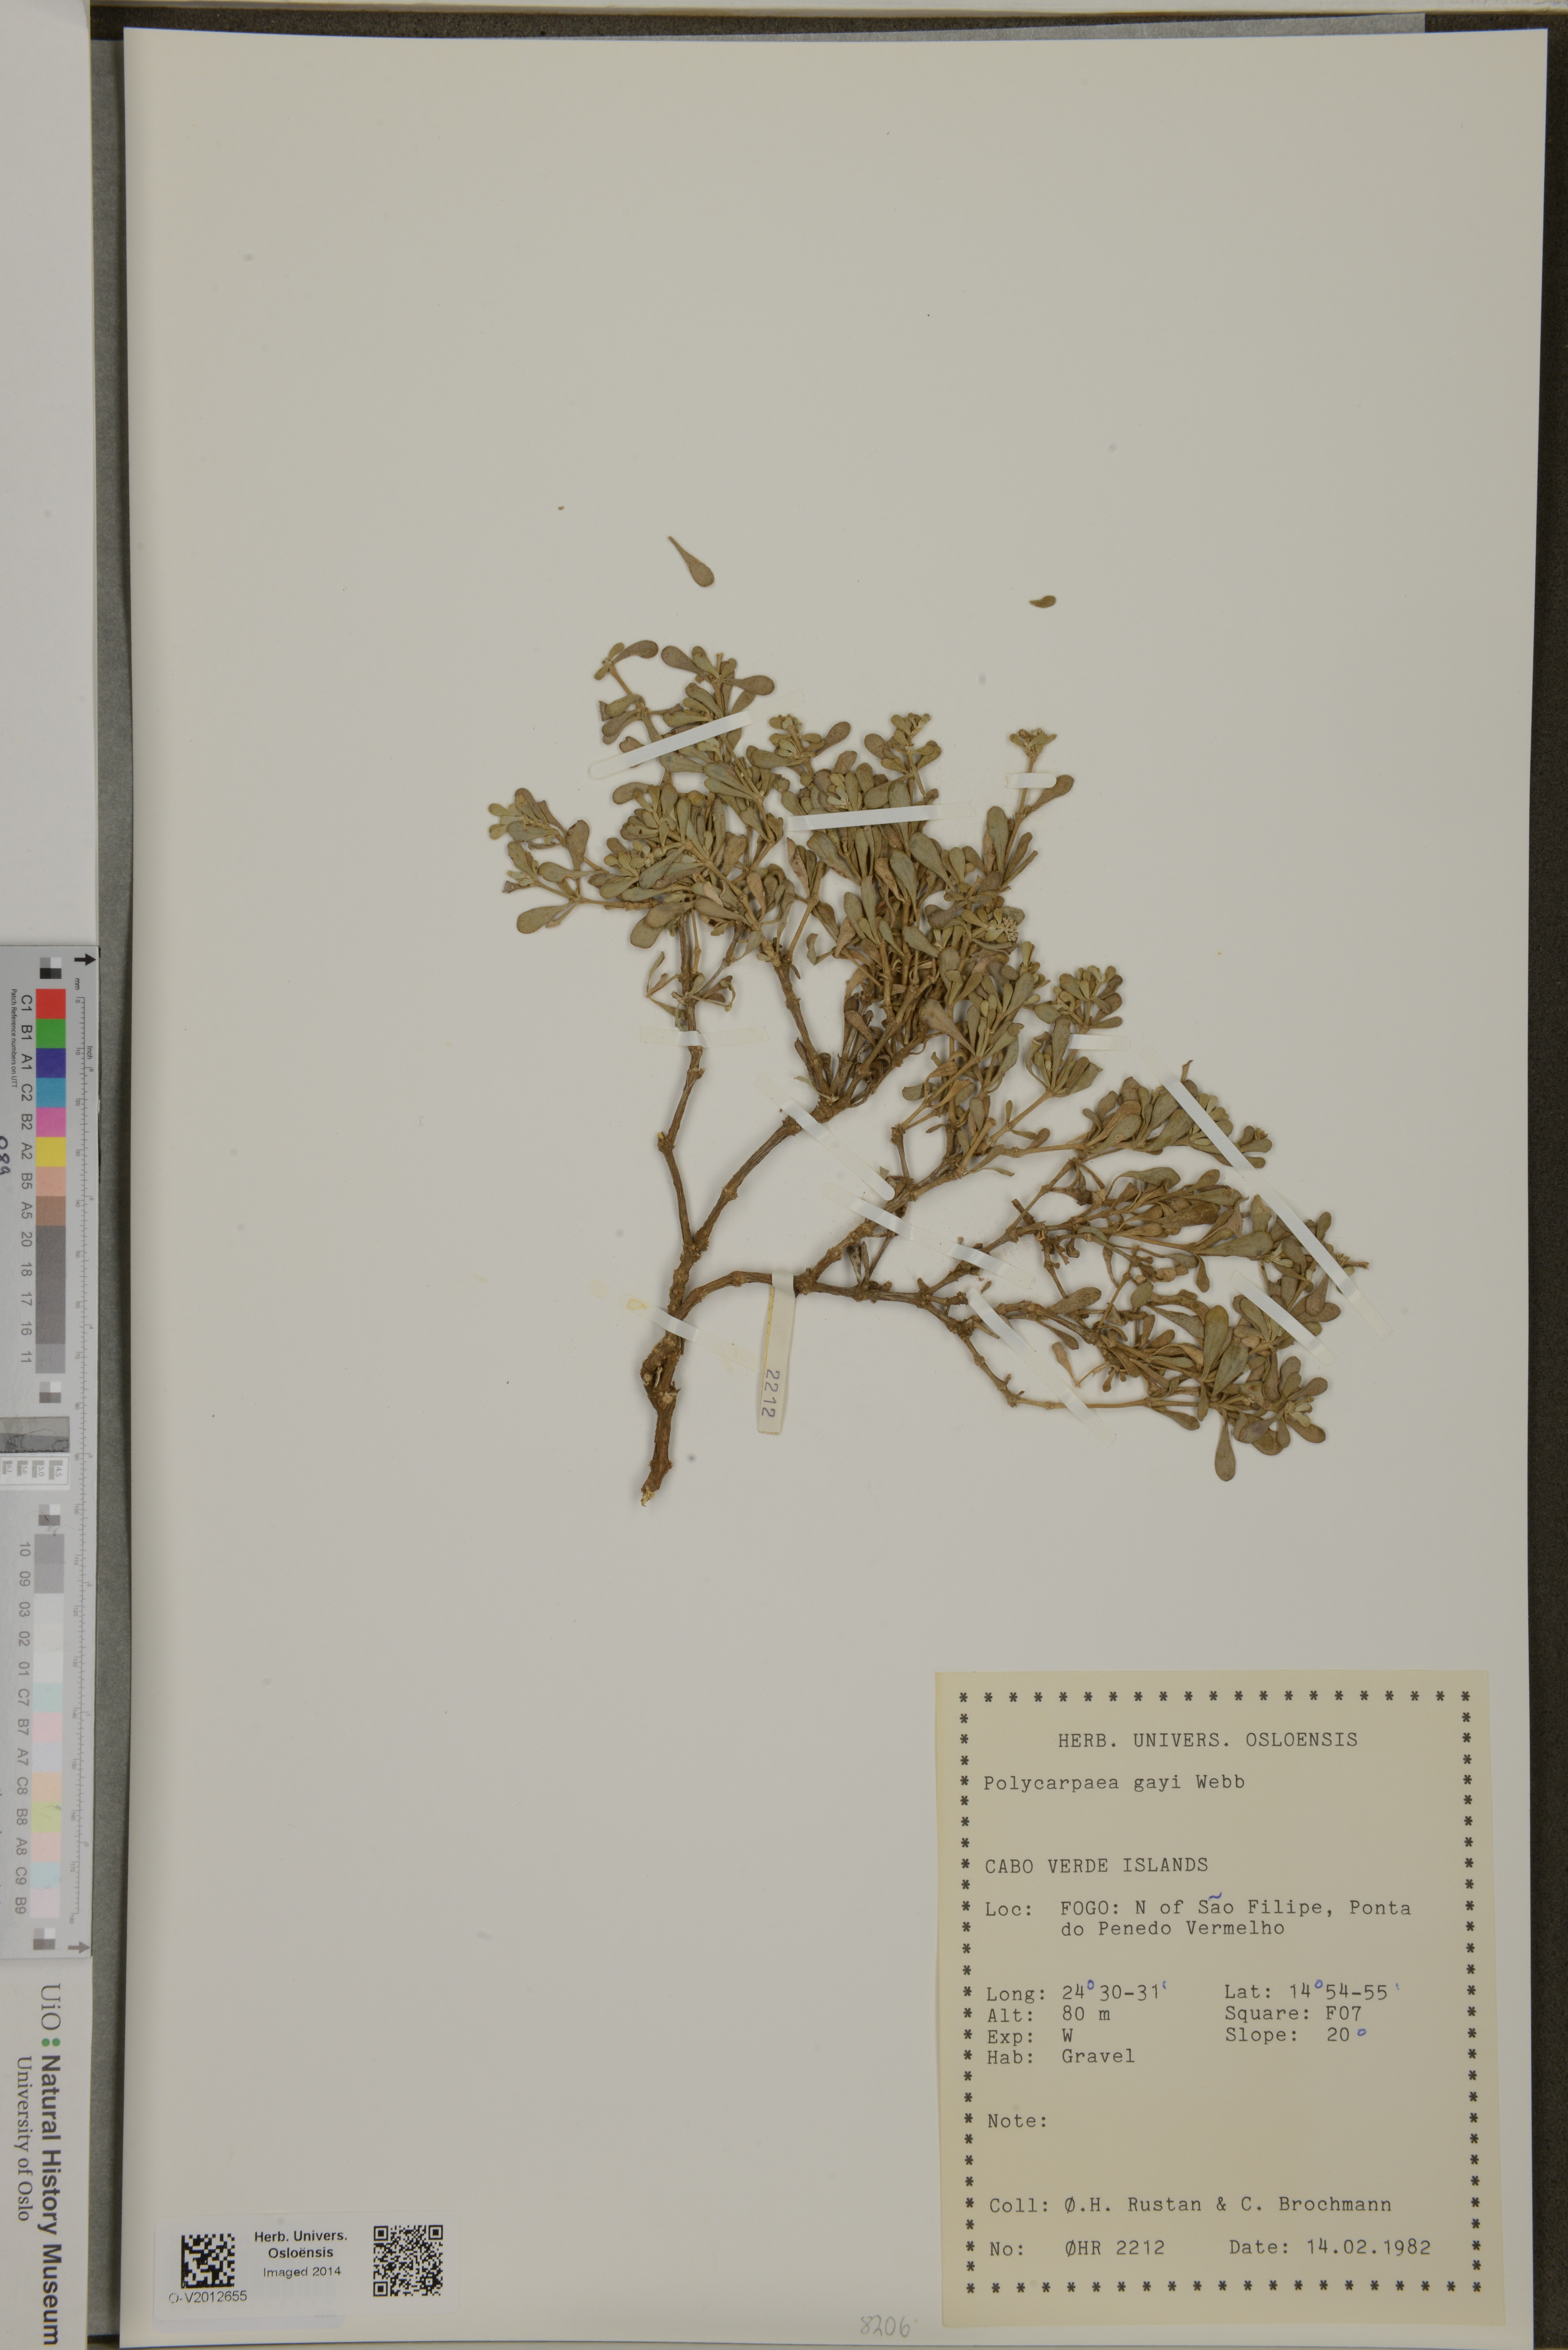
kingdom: Plantae
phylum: Tracheophyta
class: Magnoliopsida
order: Caryophyllales
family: Caryophyllaceae
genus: Polycarpaea
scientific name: Polycarpaea gayi
